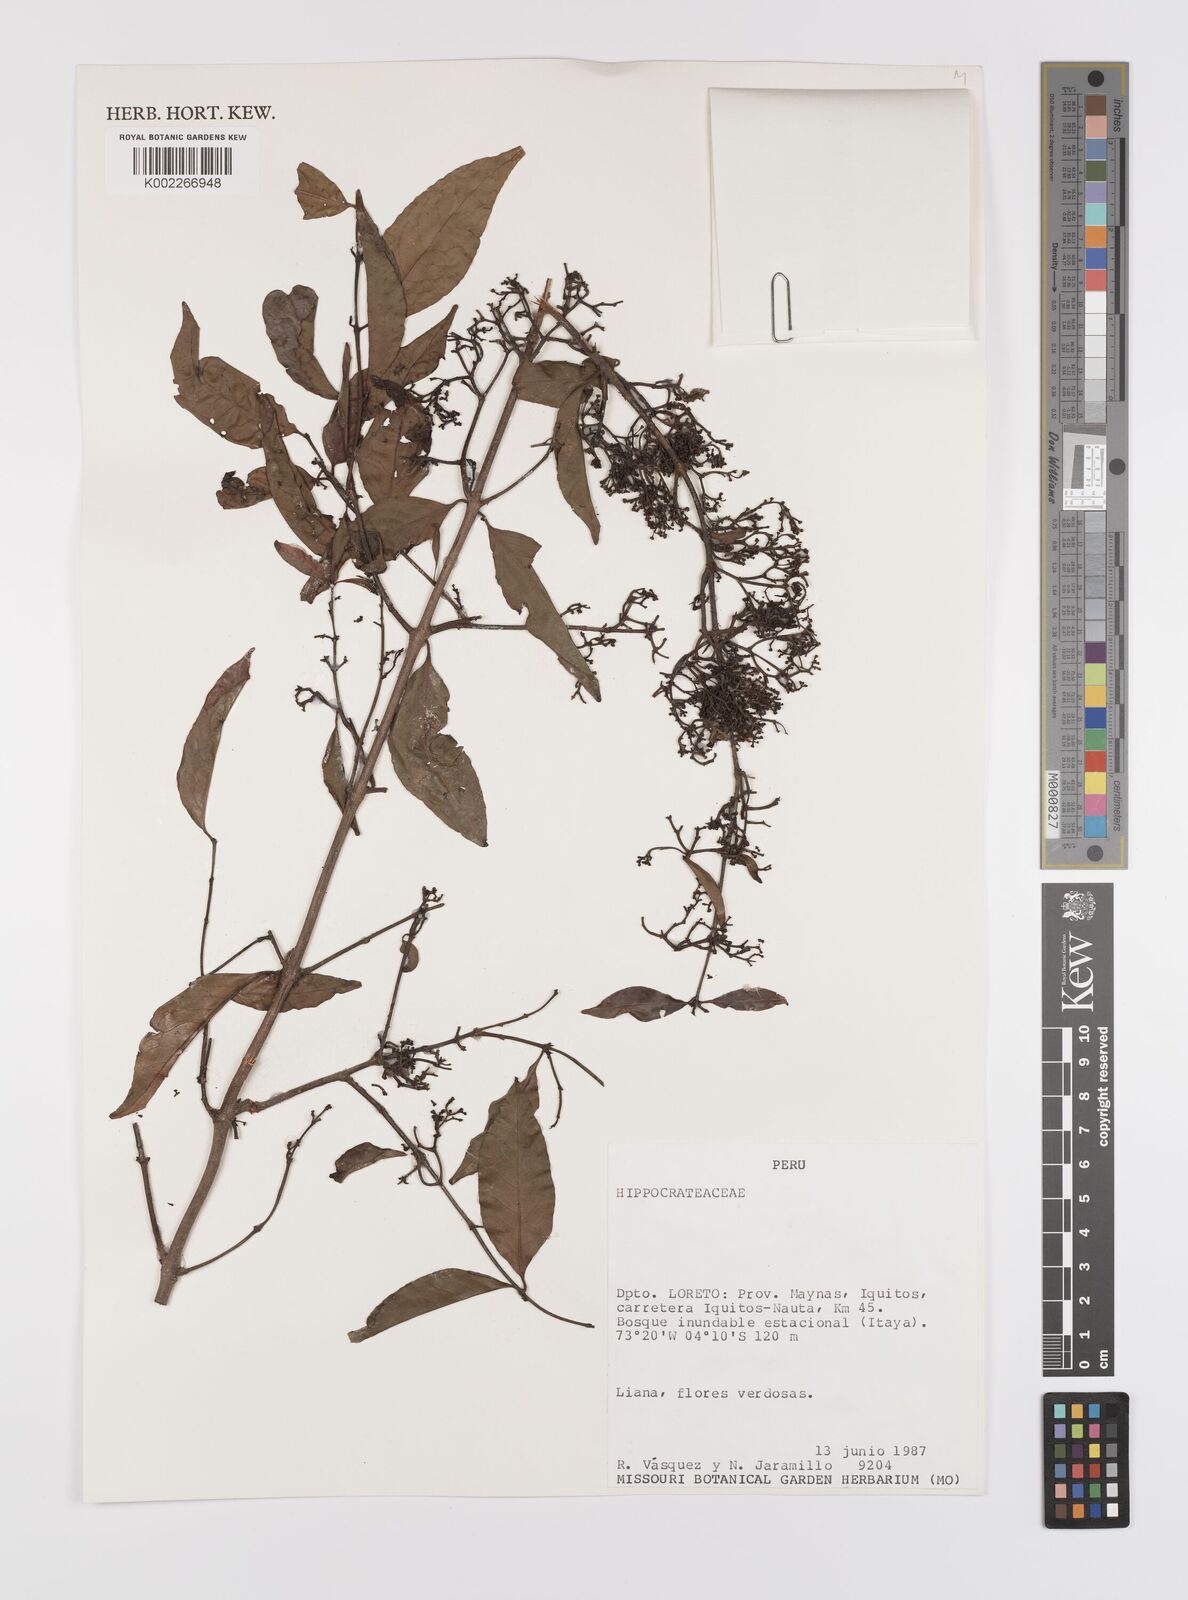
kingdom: Plantae
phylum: Tracheophyta
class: Magnoliopsida
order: Celastrales
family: Celastraceae
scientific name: Celastraceae
